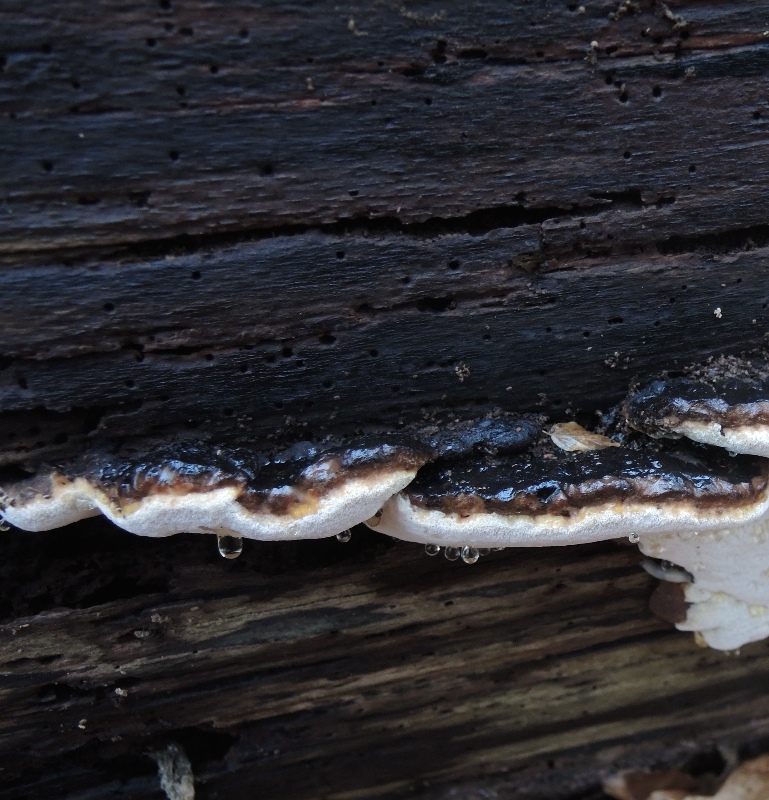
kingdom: Fungi
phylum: Basidiomycota
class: Agaricomycetes
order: Polyporales
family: Ischnodermataceae
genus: Ischnoderma
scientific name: Ischnoderma resinosum
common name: løv-tjæreporesvamp
